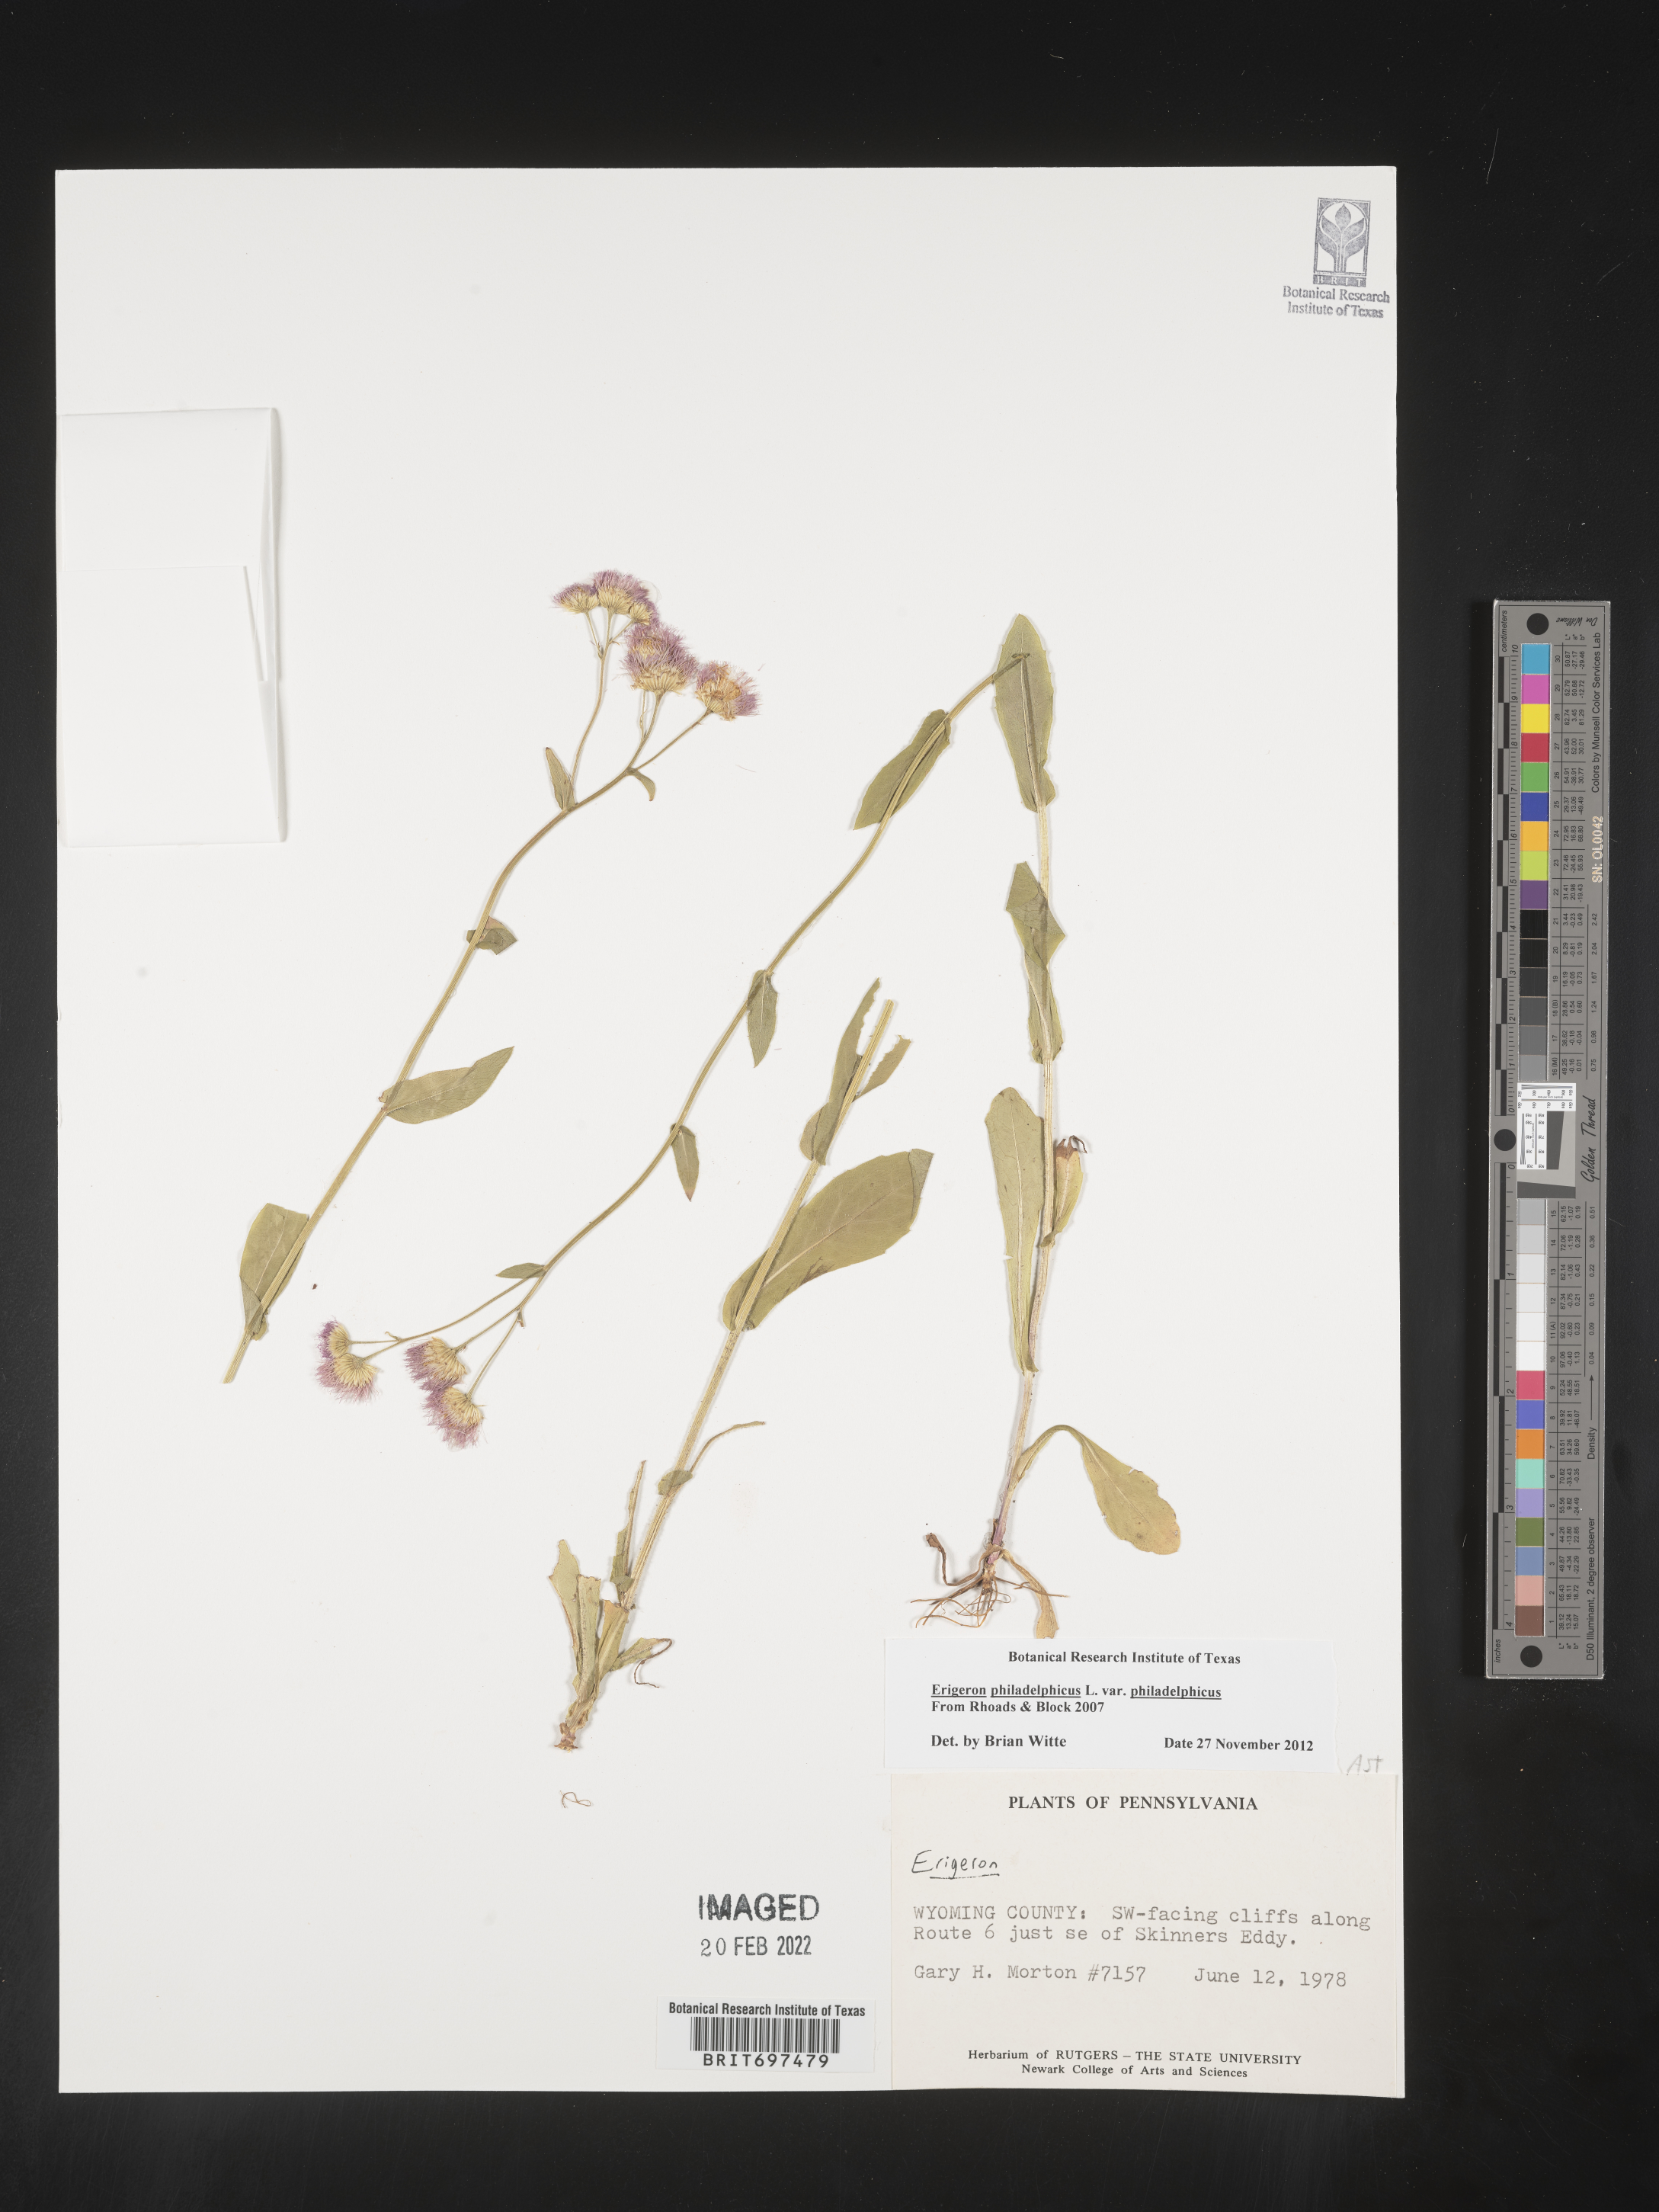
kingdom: Plantae
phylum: Tracheophyta
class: Magnoliopsida
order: Asterales
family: Asteraceae
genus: Erigeron
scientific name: Erigeron philadelphicus
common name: Robin's-plantain
